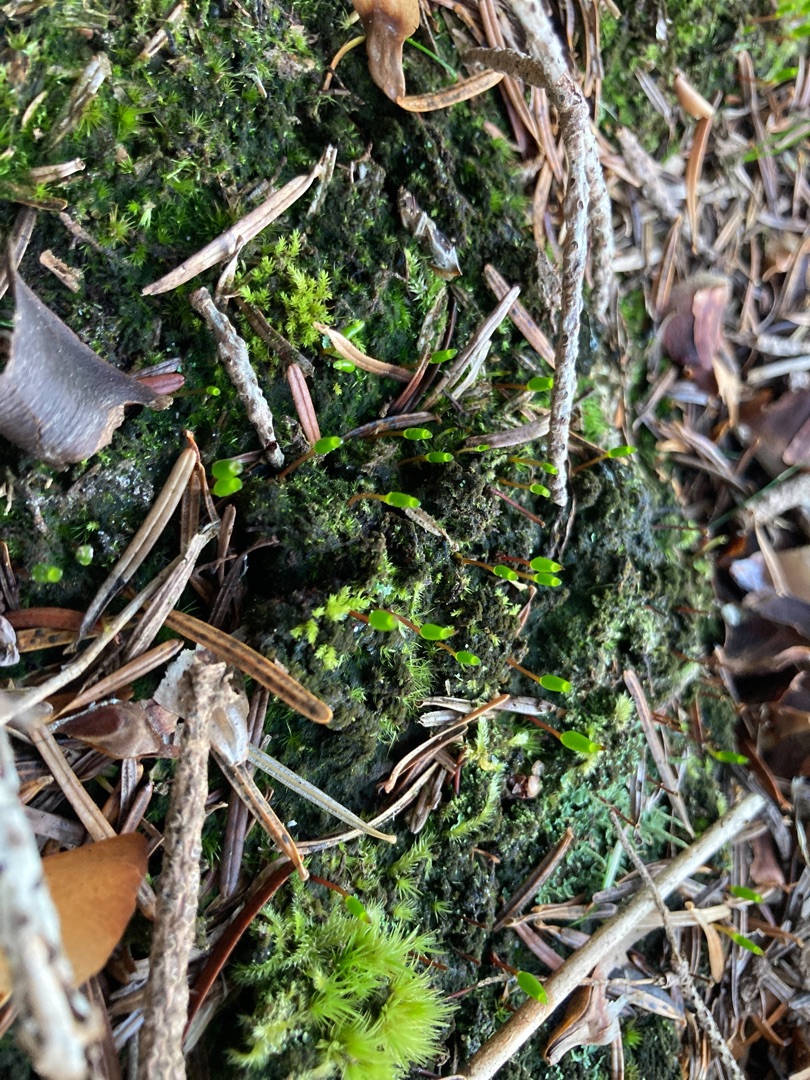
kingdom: Plantae
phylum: Bryophyta
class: Bryopsida
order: Buxbaumiales
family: Buxbaumiaceae
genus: Buxbaumia
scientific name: Buxbaumia viridis
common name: Grøn buxbaumia
